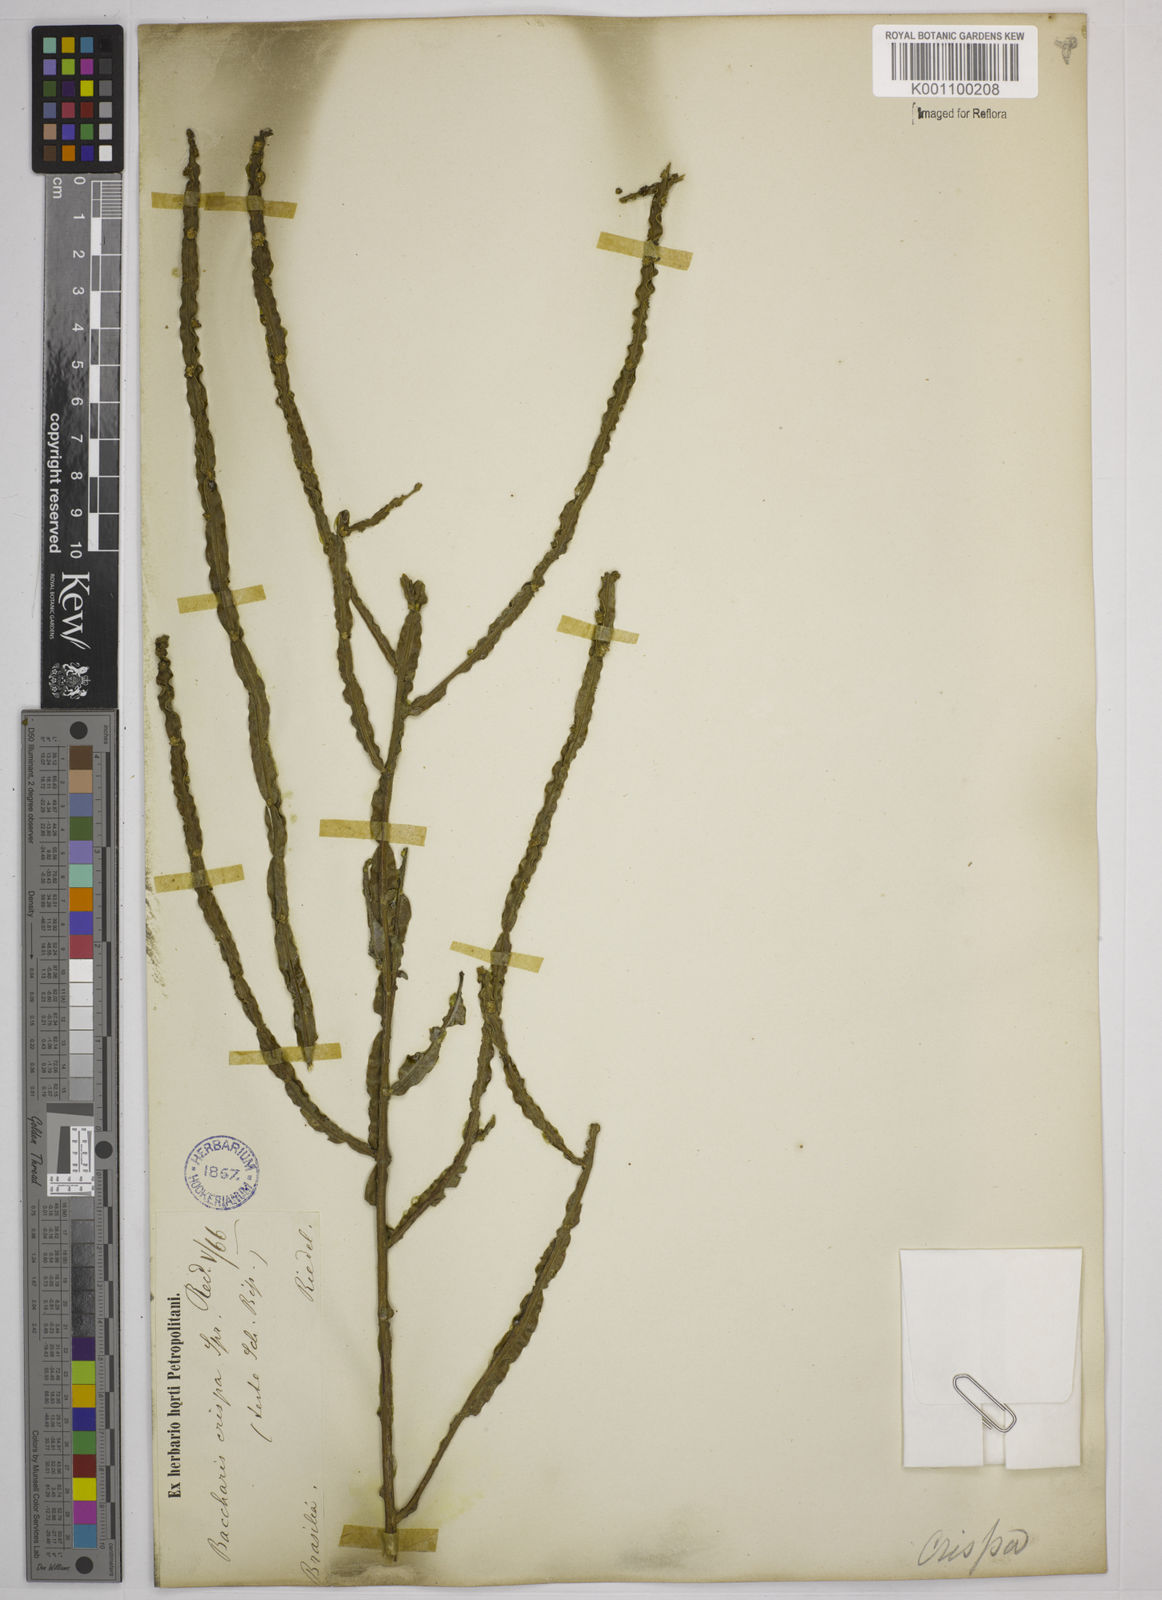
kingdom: Plantae
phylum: Tracheophyta
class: Magnoliopsida
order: Asterales
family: Asteraceae
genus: Baccharis
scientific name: Baccharis crispa
